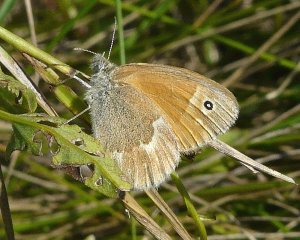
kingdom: Animalia
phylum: Arthropoda
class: Insecta
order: Lepidoptera
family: Nymphalidae
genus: Coenonympha
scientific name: Coenonympha tullia
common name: Large Heath
